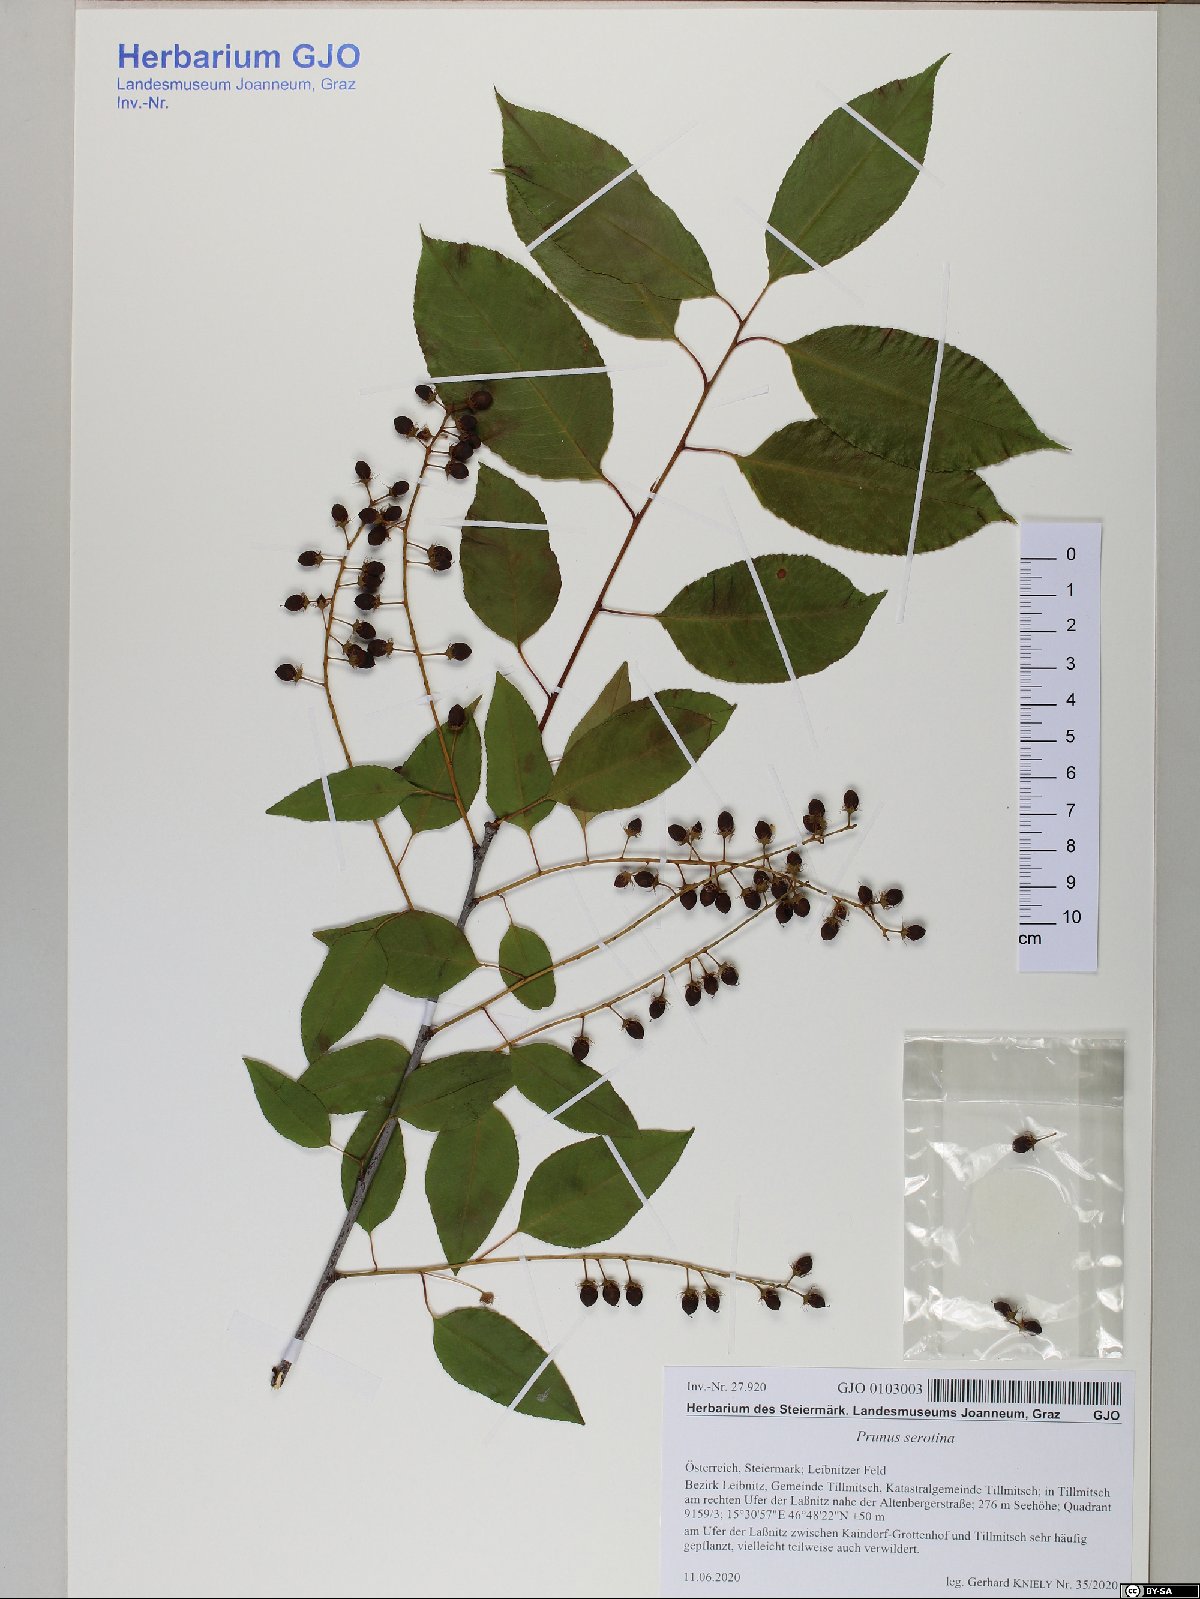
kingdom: Plantae
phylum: Tracheophyta
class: Magnoliopsida
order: Rosales
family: Rosaceae
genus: Prunus
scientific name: Prunus serotina
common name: Black cherry
